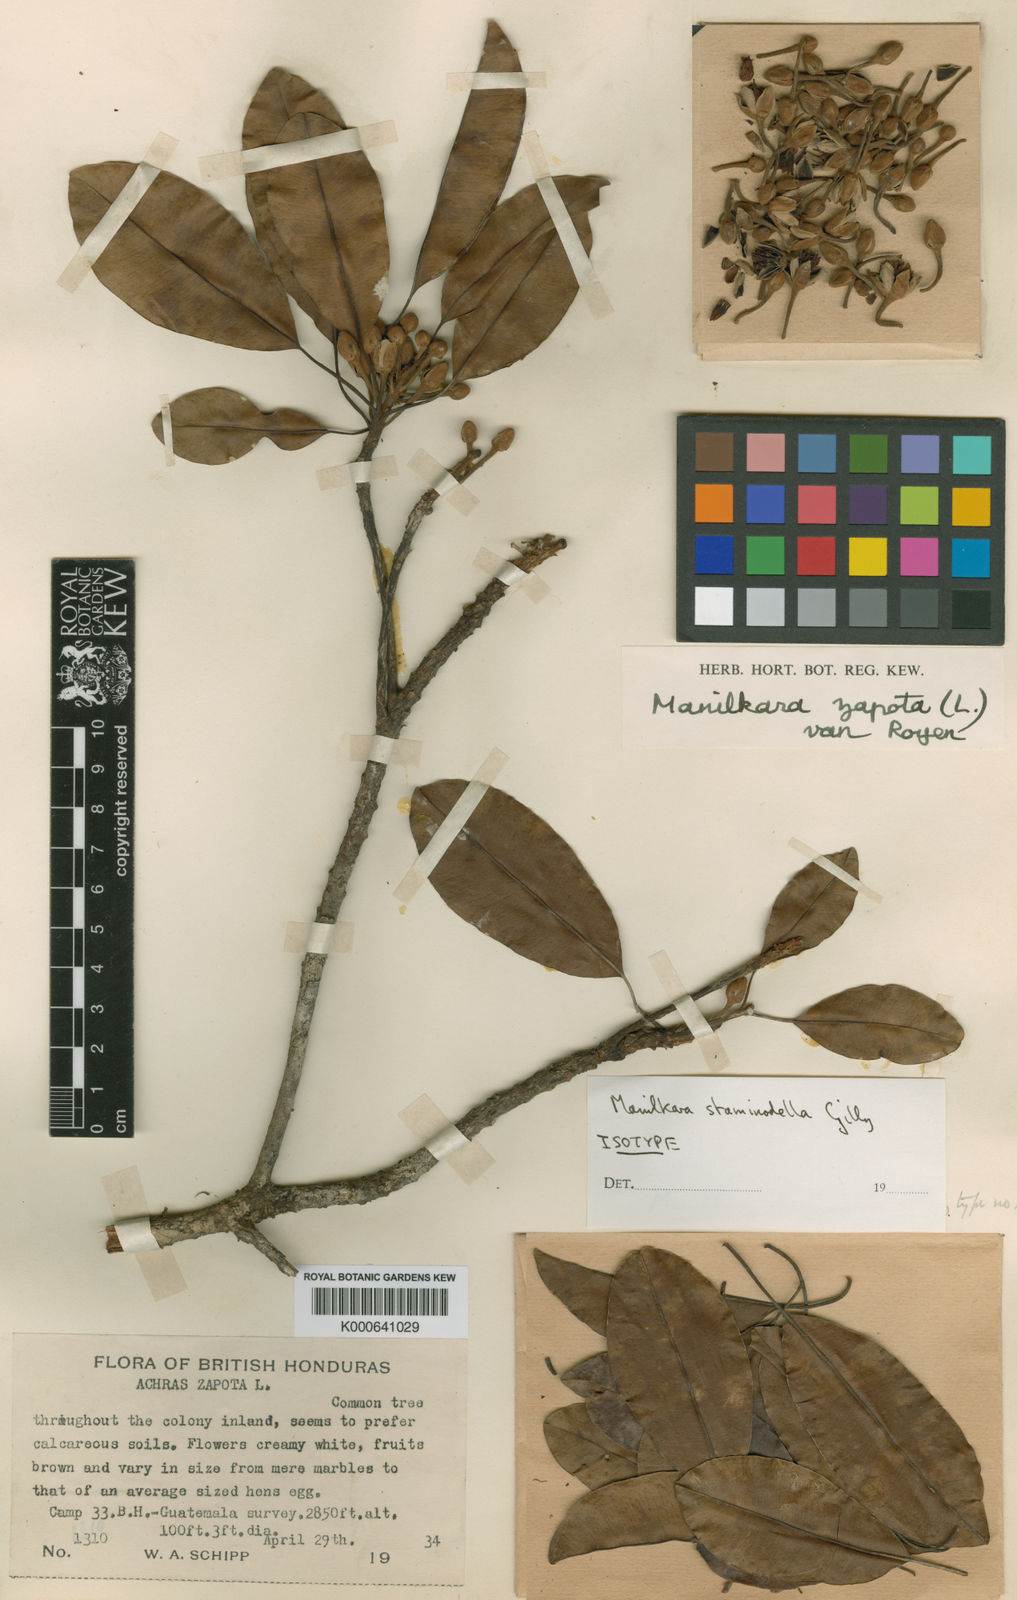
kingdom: Plantae
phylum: Tracheophyta
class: Magnoliopsida
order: Ericales
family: Sapotaceae
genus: Manilkara
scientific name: Manilkara staminodella
